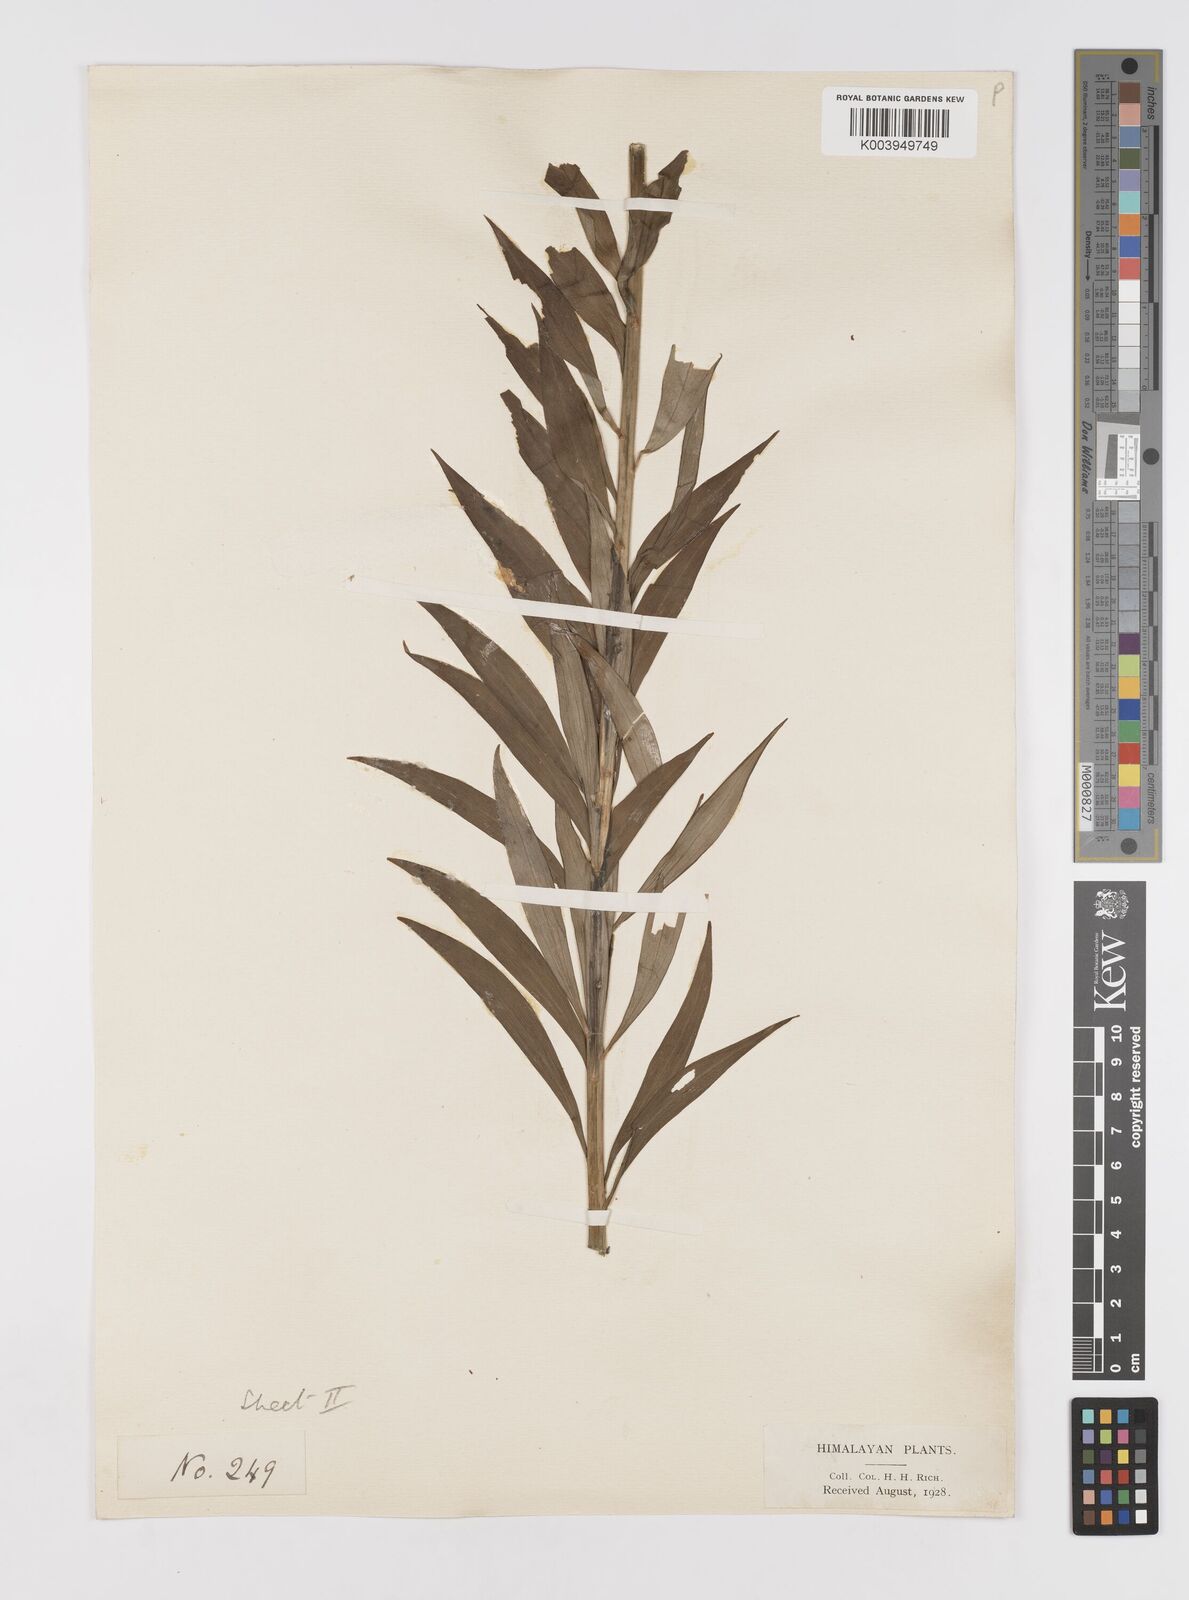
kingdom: Plantae
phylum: Tracheophyta
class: Liliopsida
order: Liliales
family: Liliaceae
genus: Lilium
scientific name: Lilium polyphyllum
